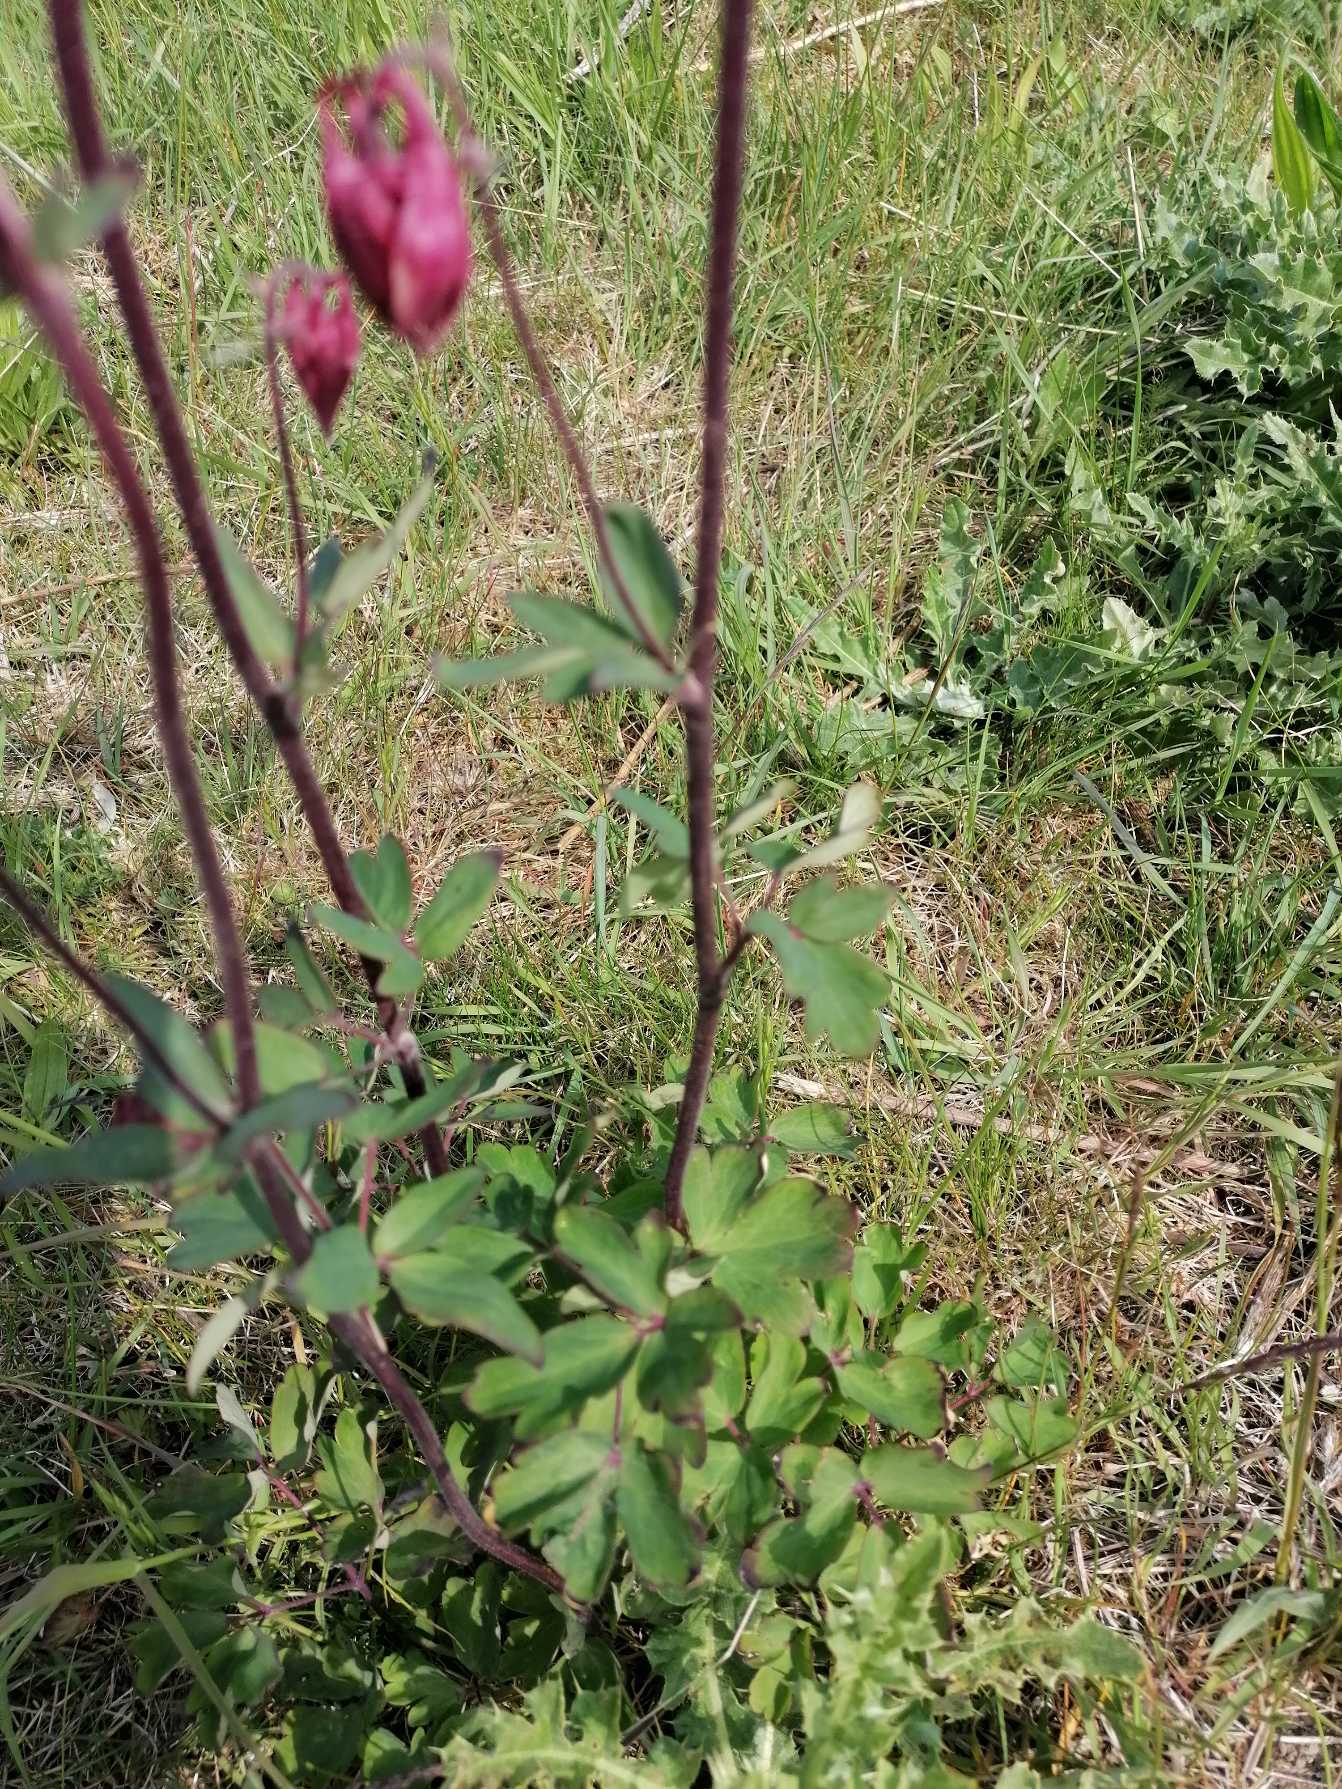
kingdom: Plantae
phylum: Tracheophyta
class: Magnoliopsida
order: Ranunculales
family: Ranunculaceae
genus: Aquilegia
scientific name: Aquilegia vulgaris
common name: Akeleje
